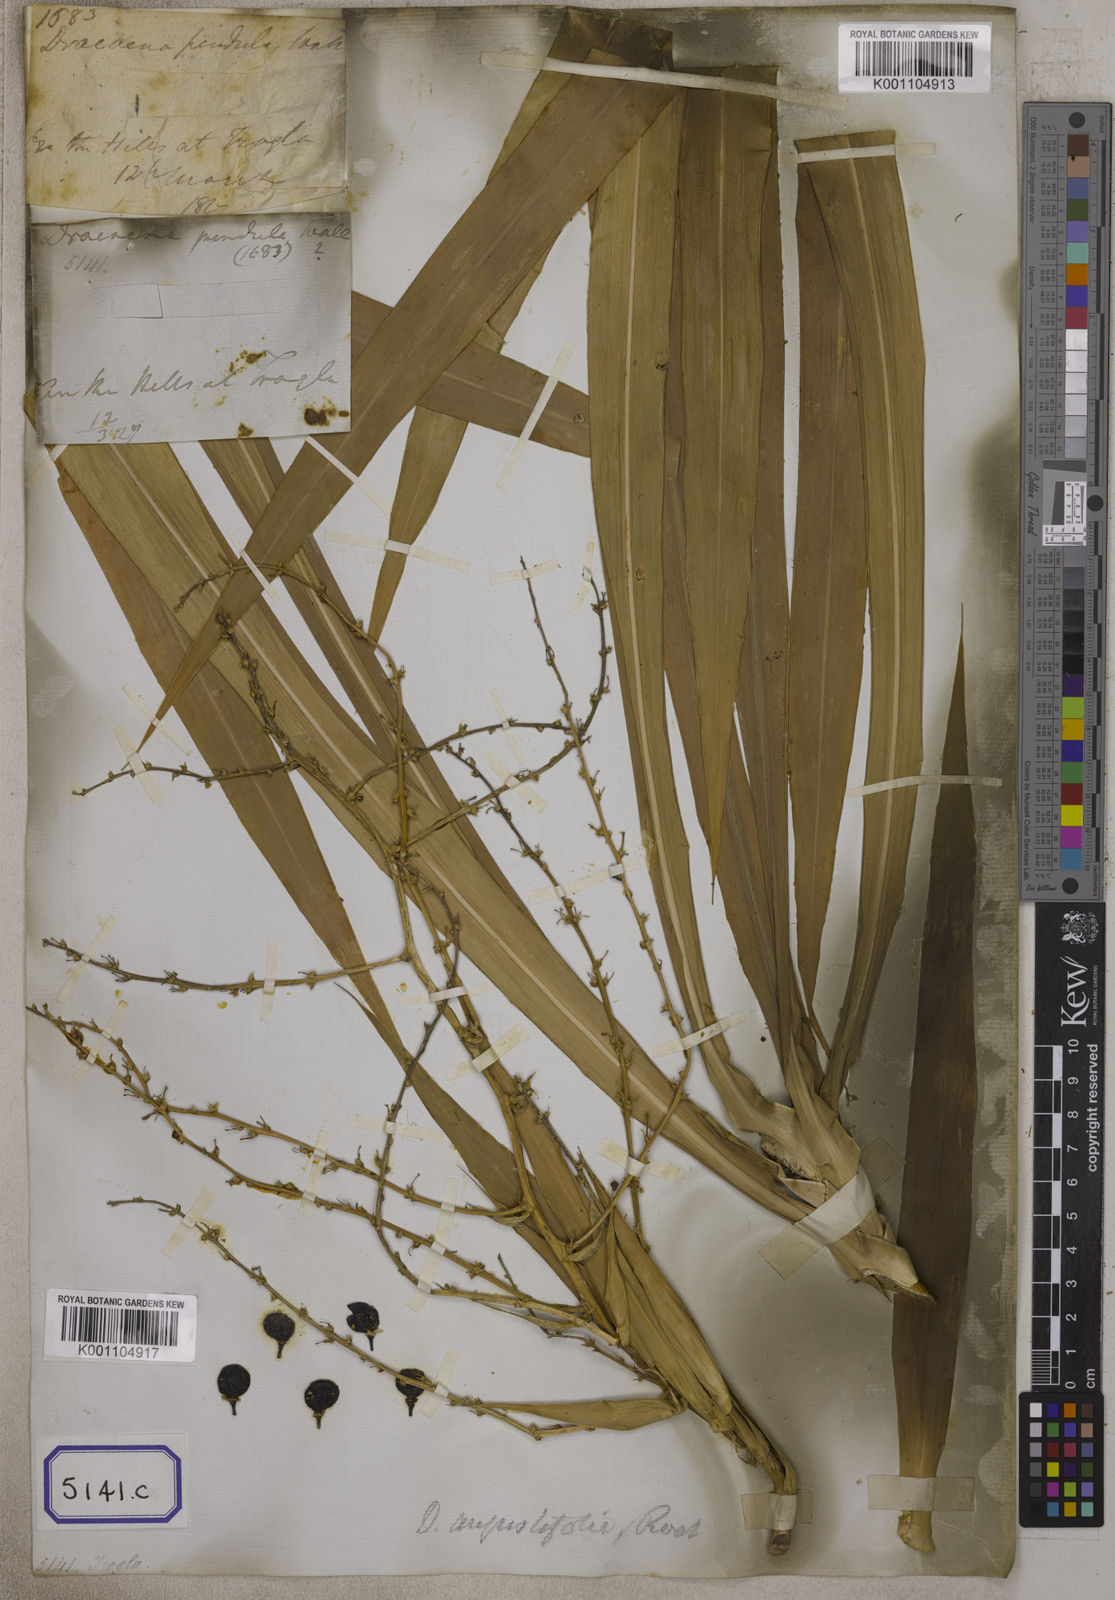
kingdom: Plantae
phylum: Tracheophyta
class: Liliopsida
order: Asparagales
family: Asparagaceae
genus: Dracaena
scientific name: Dracaena angustifolia
